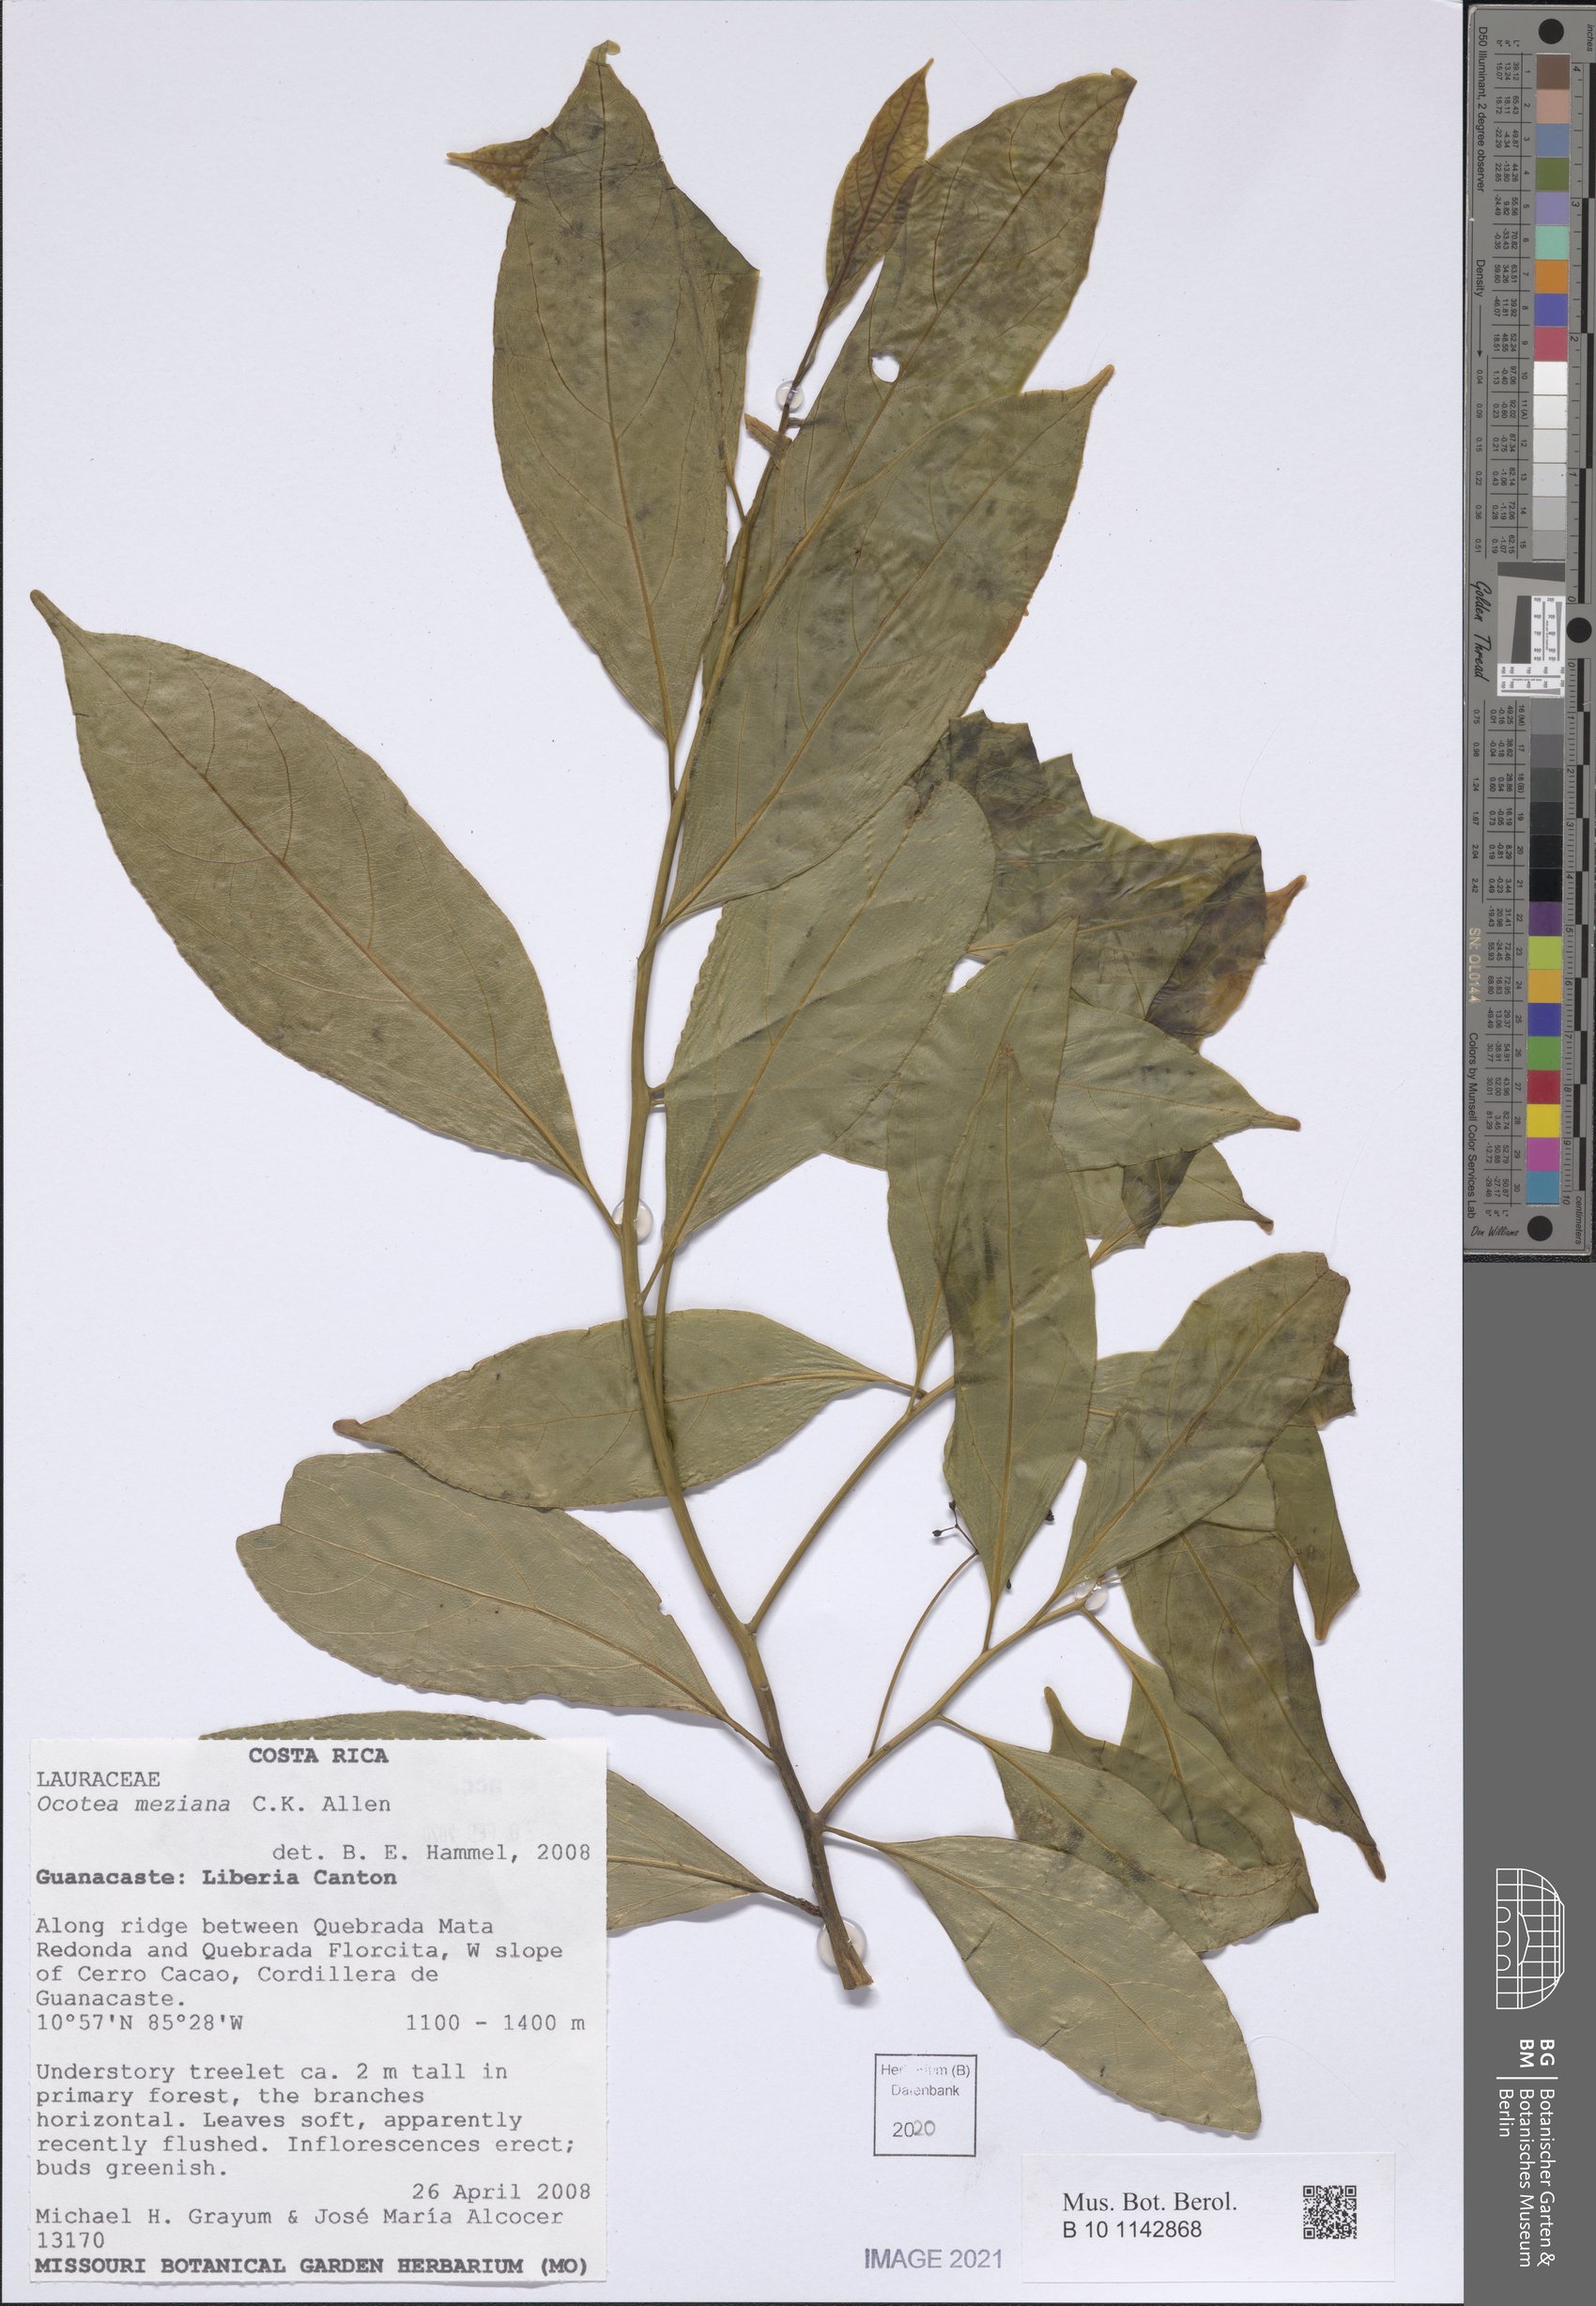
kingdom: Plantae
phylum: Tracheophyta
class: Magnoliopsida
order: Laurales
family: Lauraceae
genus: Ocotea
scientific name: Ocotea meziana
